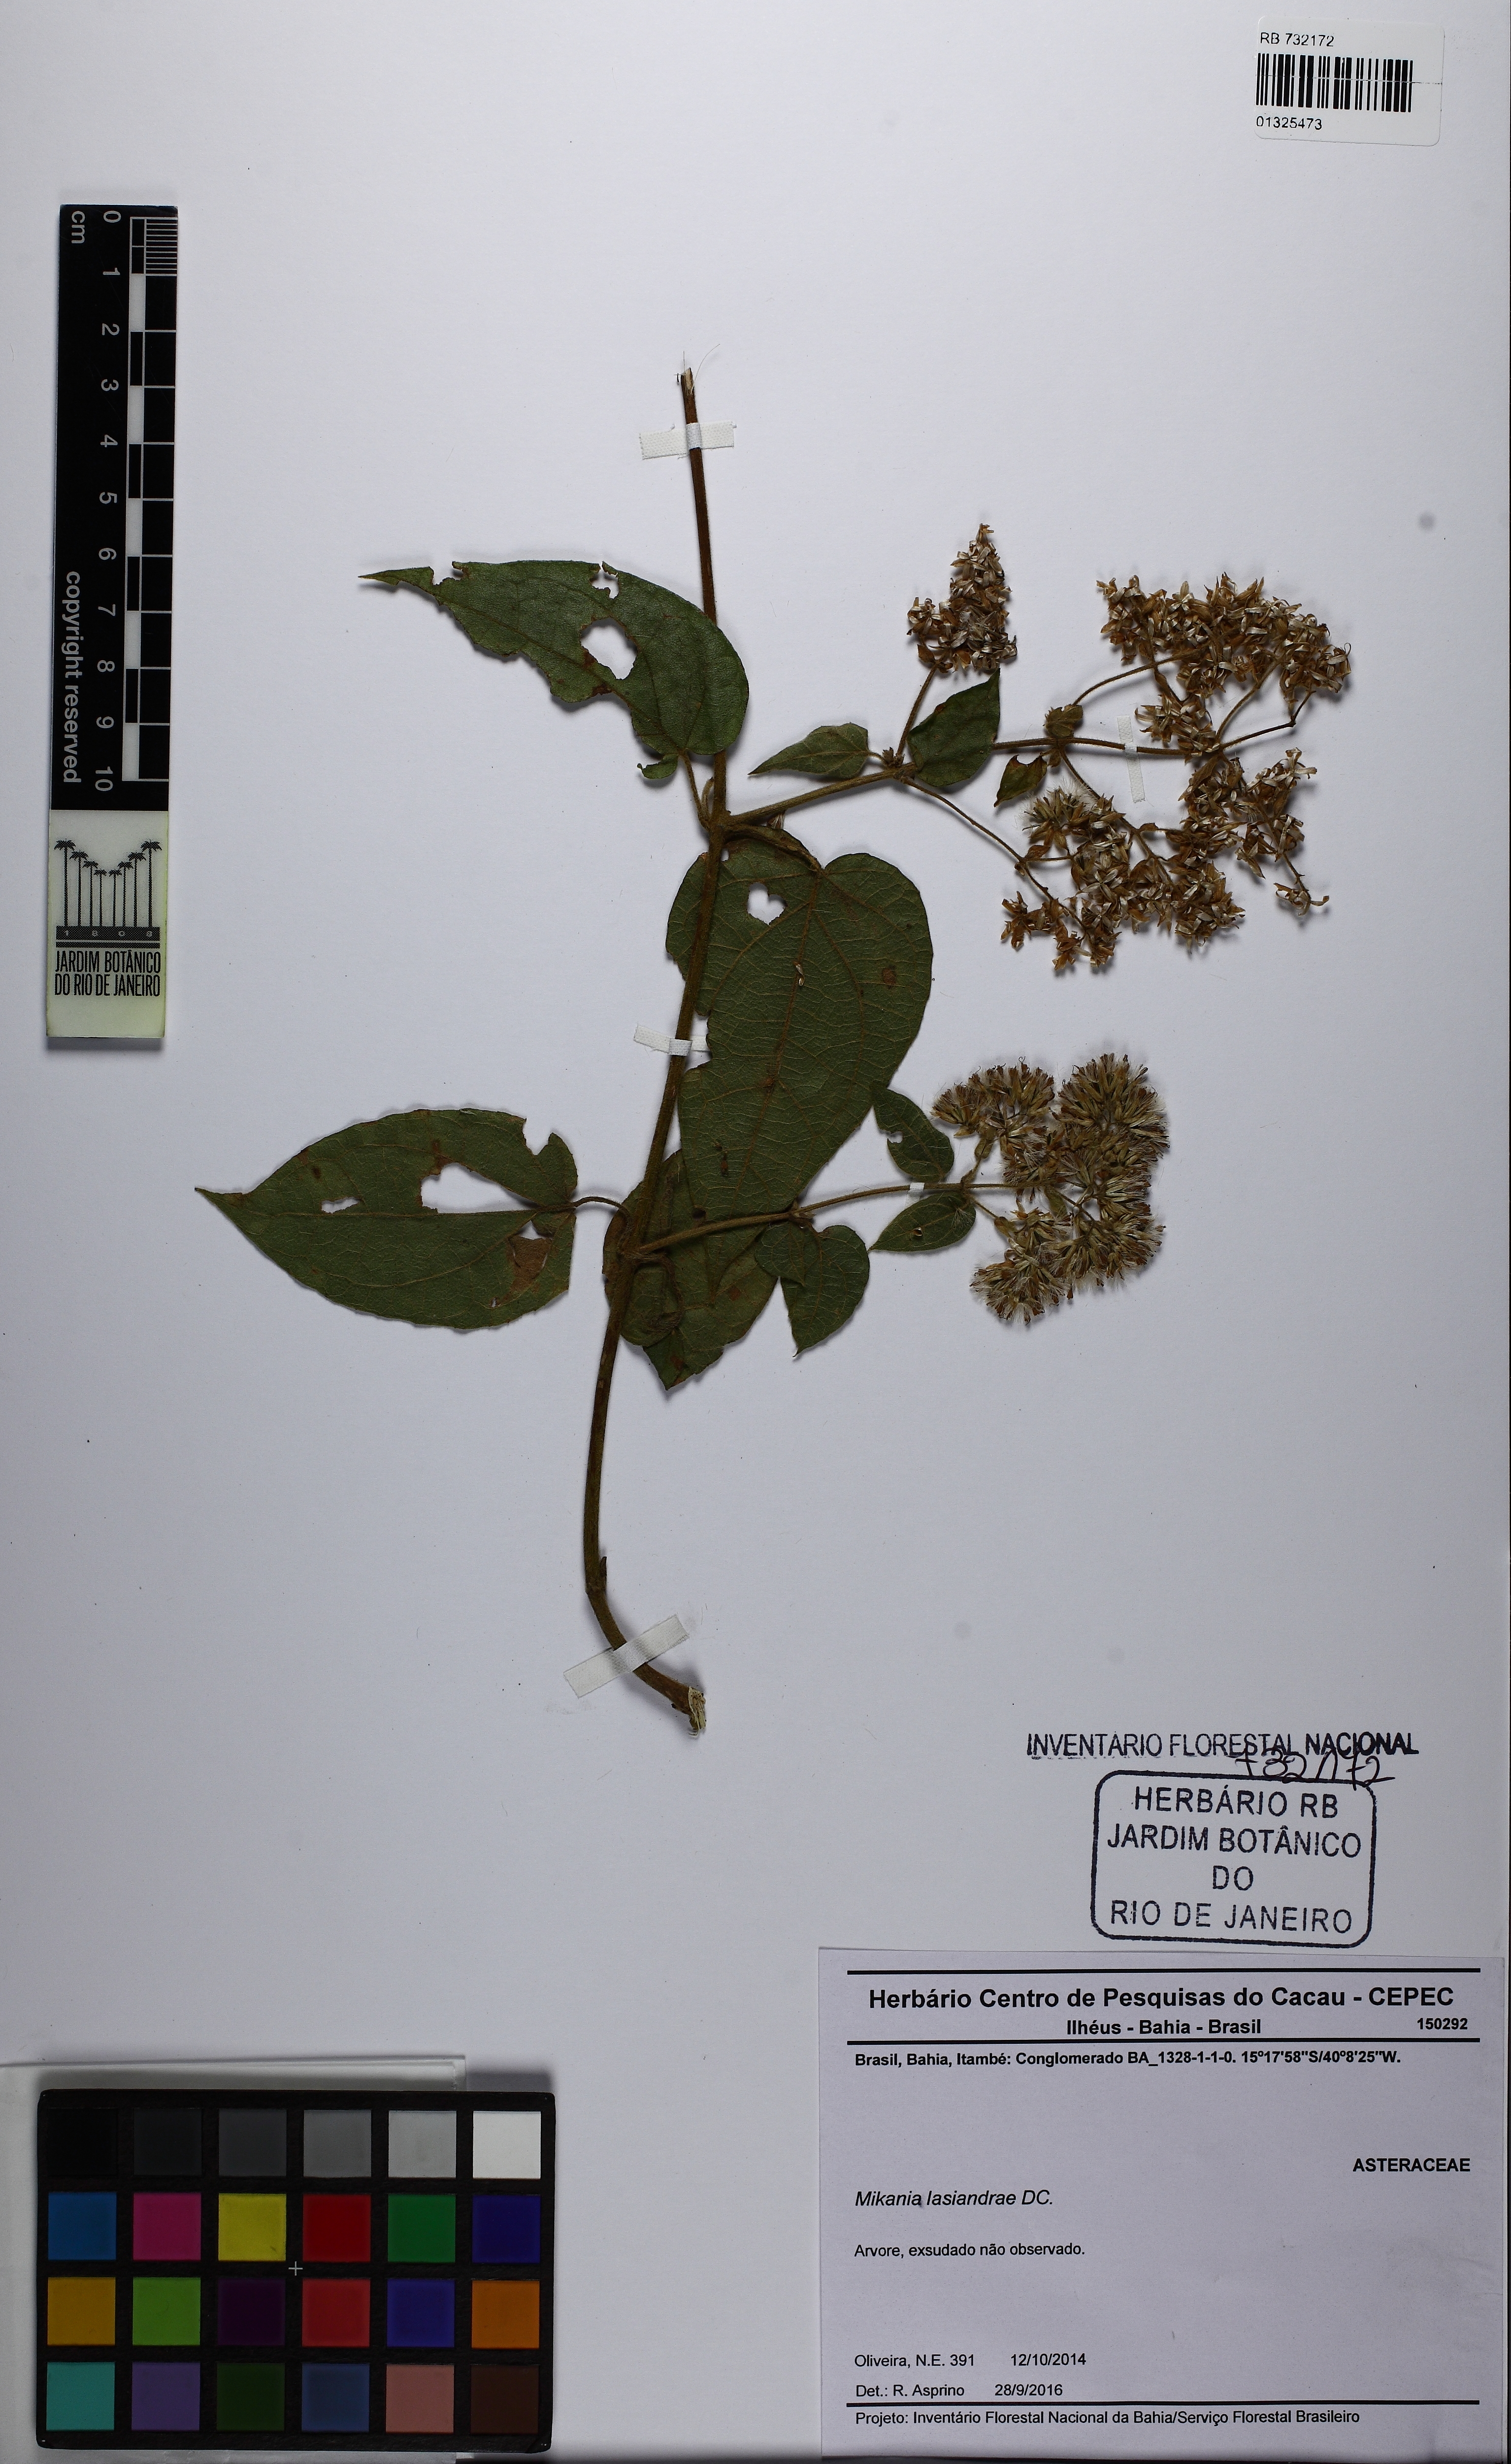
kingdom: Plantae
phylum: Tracheophyta
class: Magnoliopsida
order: Asterales
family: Asteraceae
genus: Mikania
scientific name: Mikania lasiandrae
